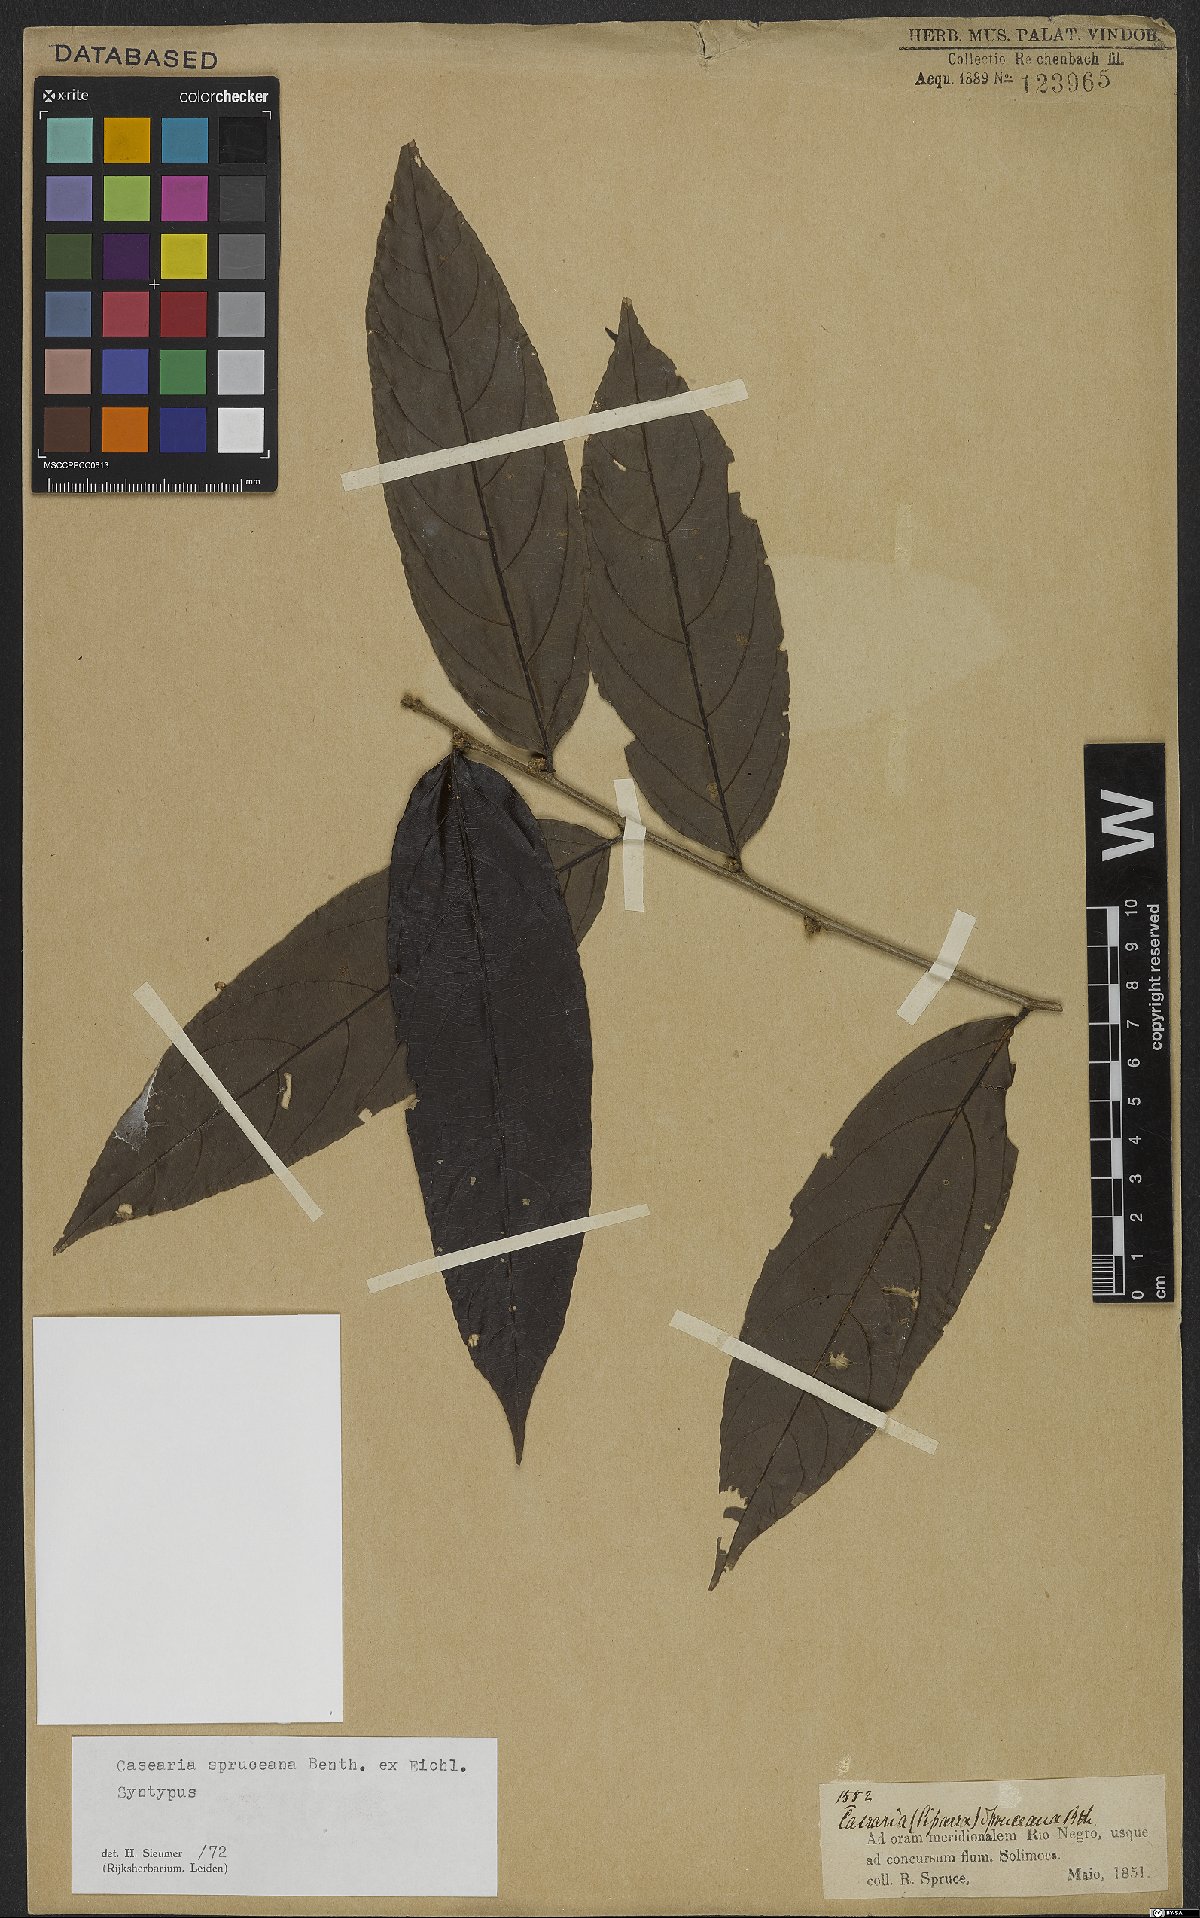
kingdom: Plantae
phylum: Tracheophyta
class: Magnoliopsida
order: Malpighiales
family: Salicaceae
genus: Piparea
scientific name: Piparea spruceana
